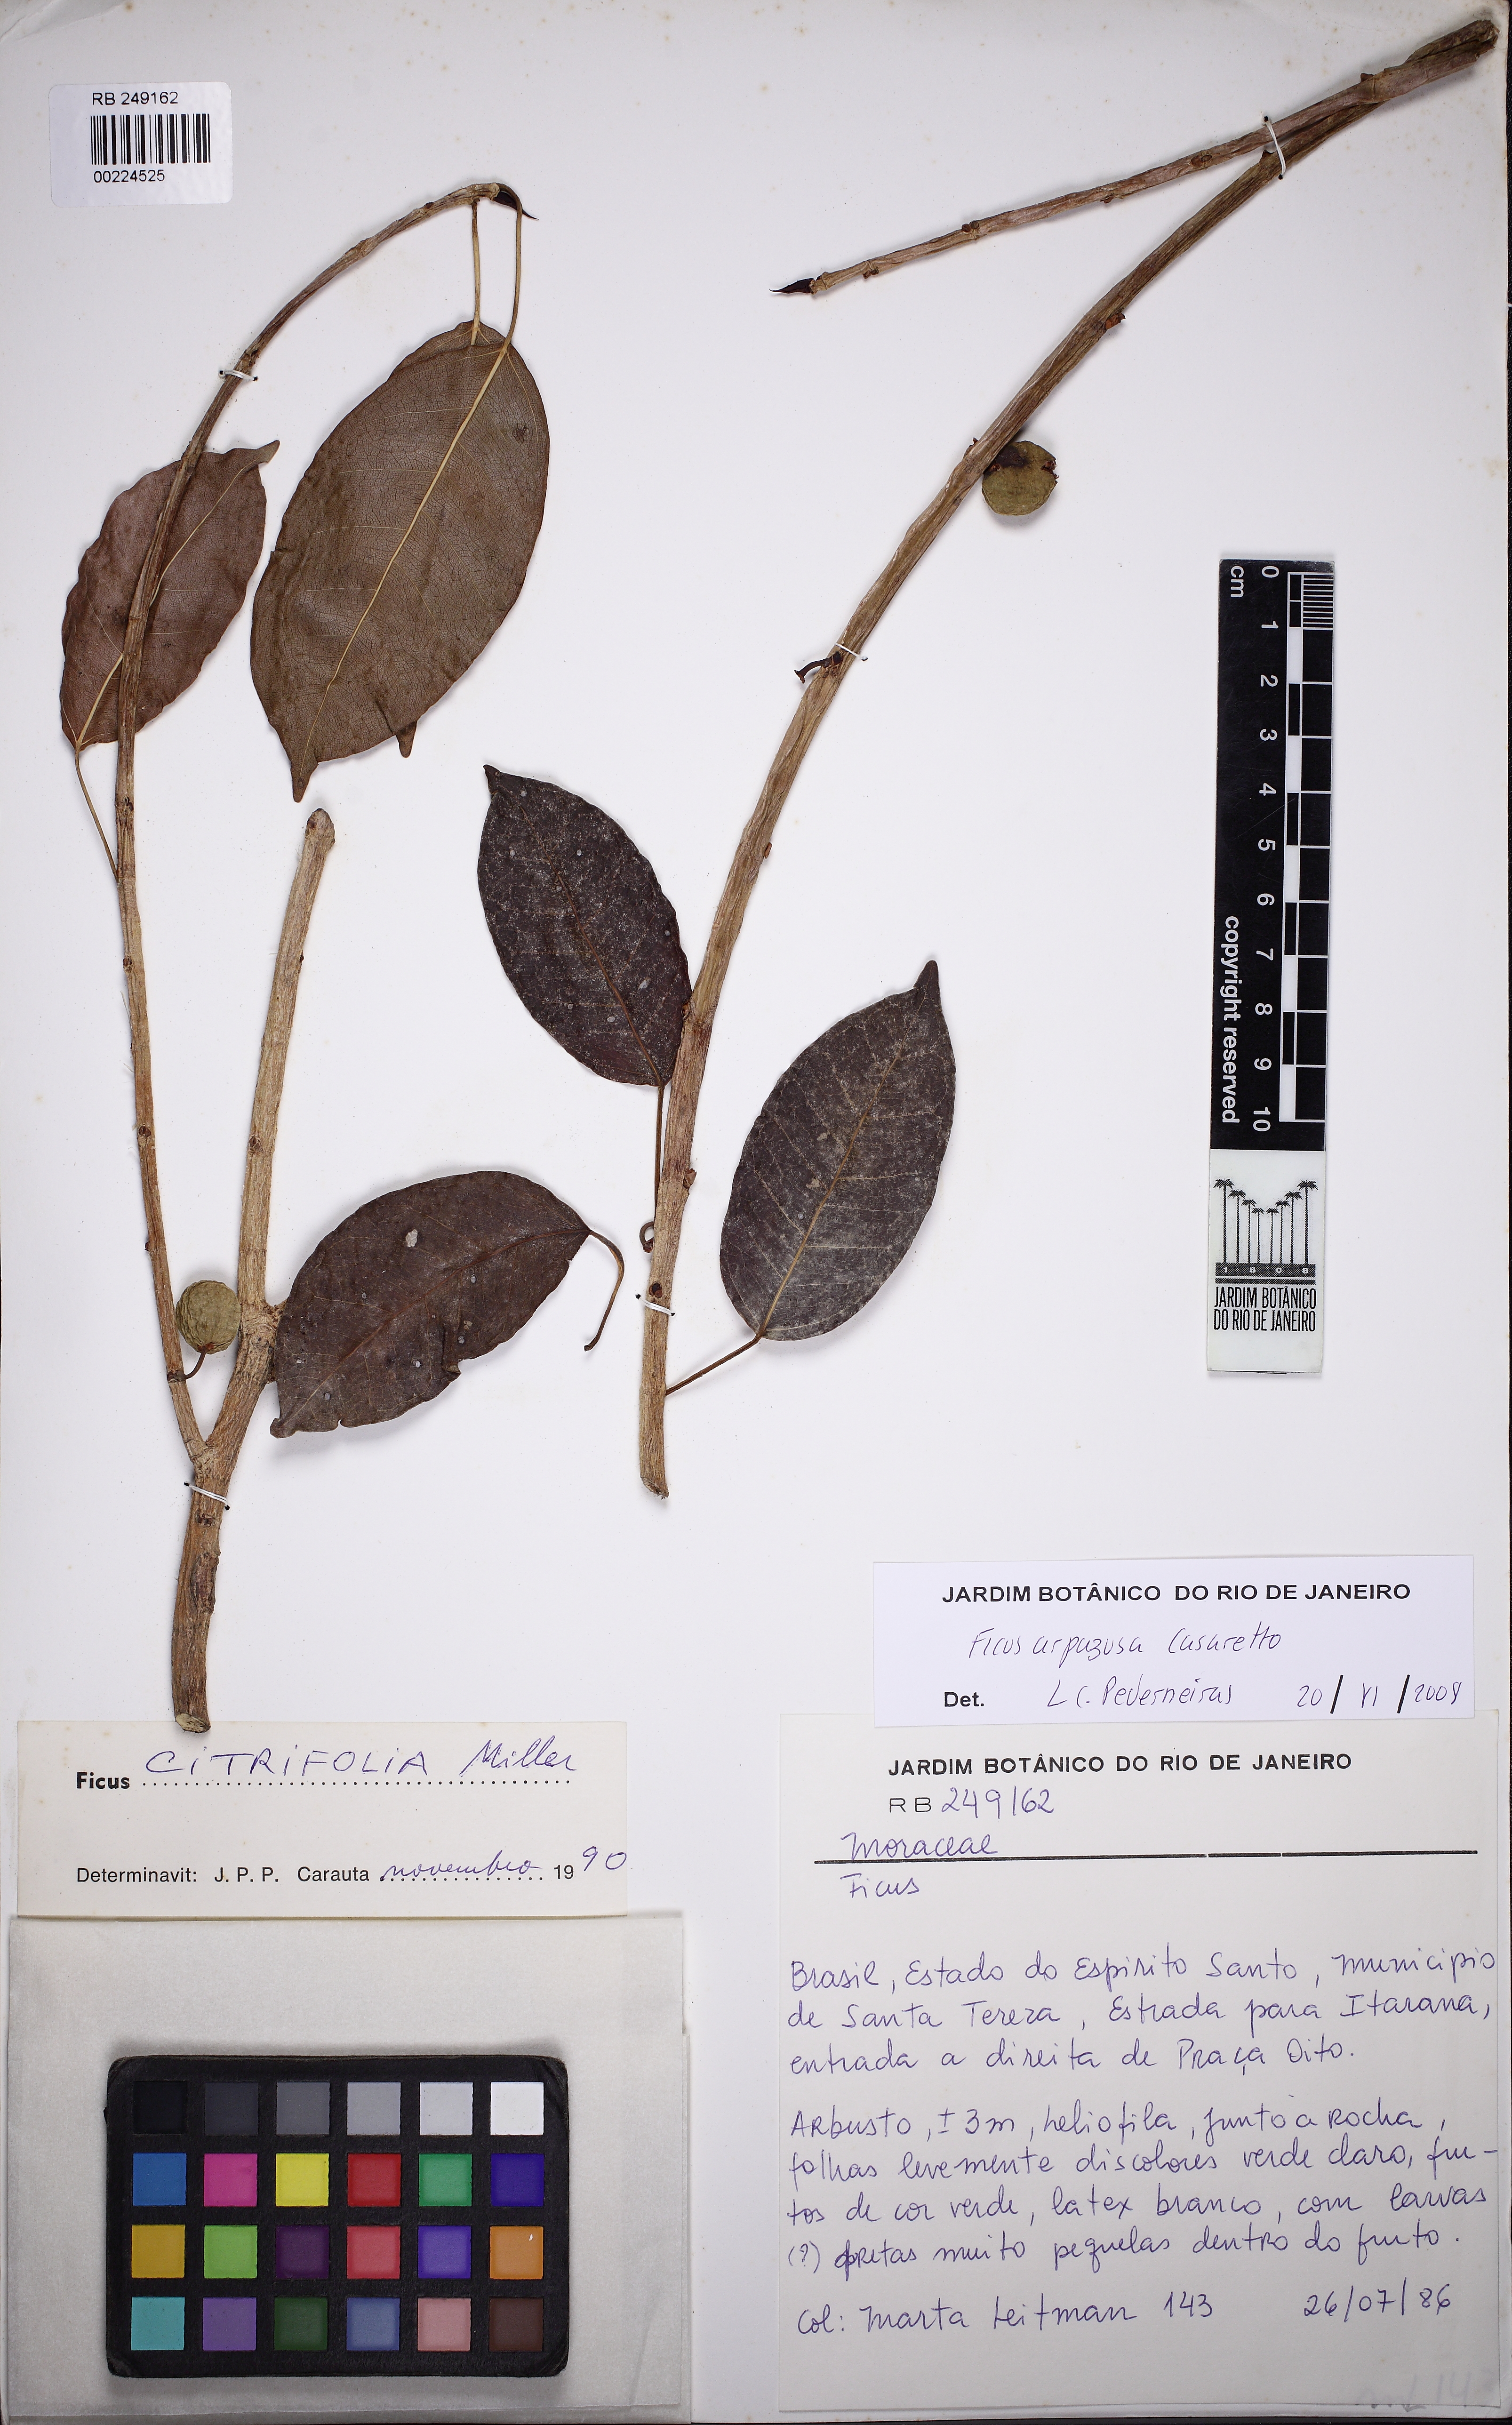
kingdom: Plantae
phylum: Tracheophyta
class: Magnoliopsida
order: Rosales
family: Moraceae
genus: Ficus
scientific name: Ficus arpazusa
